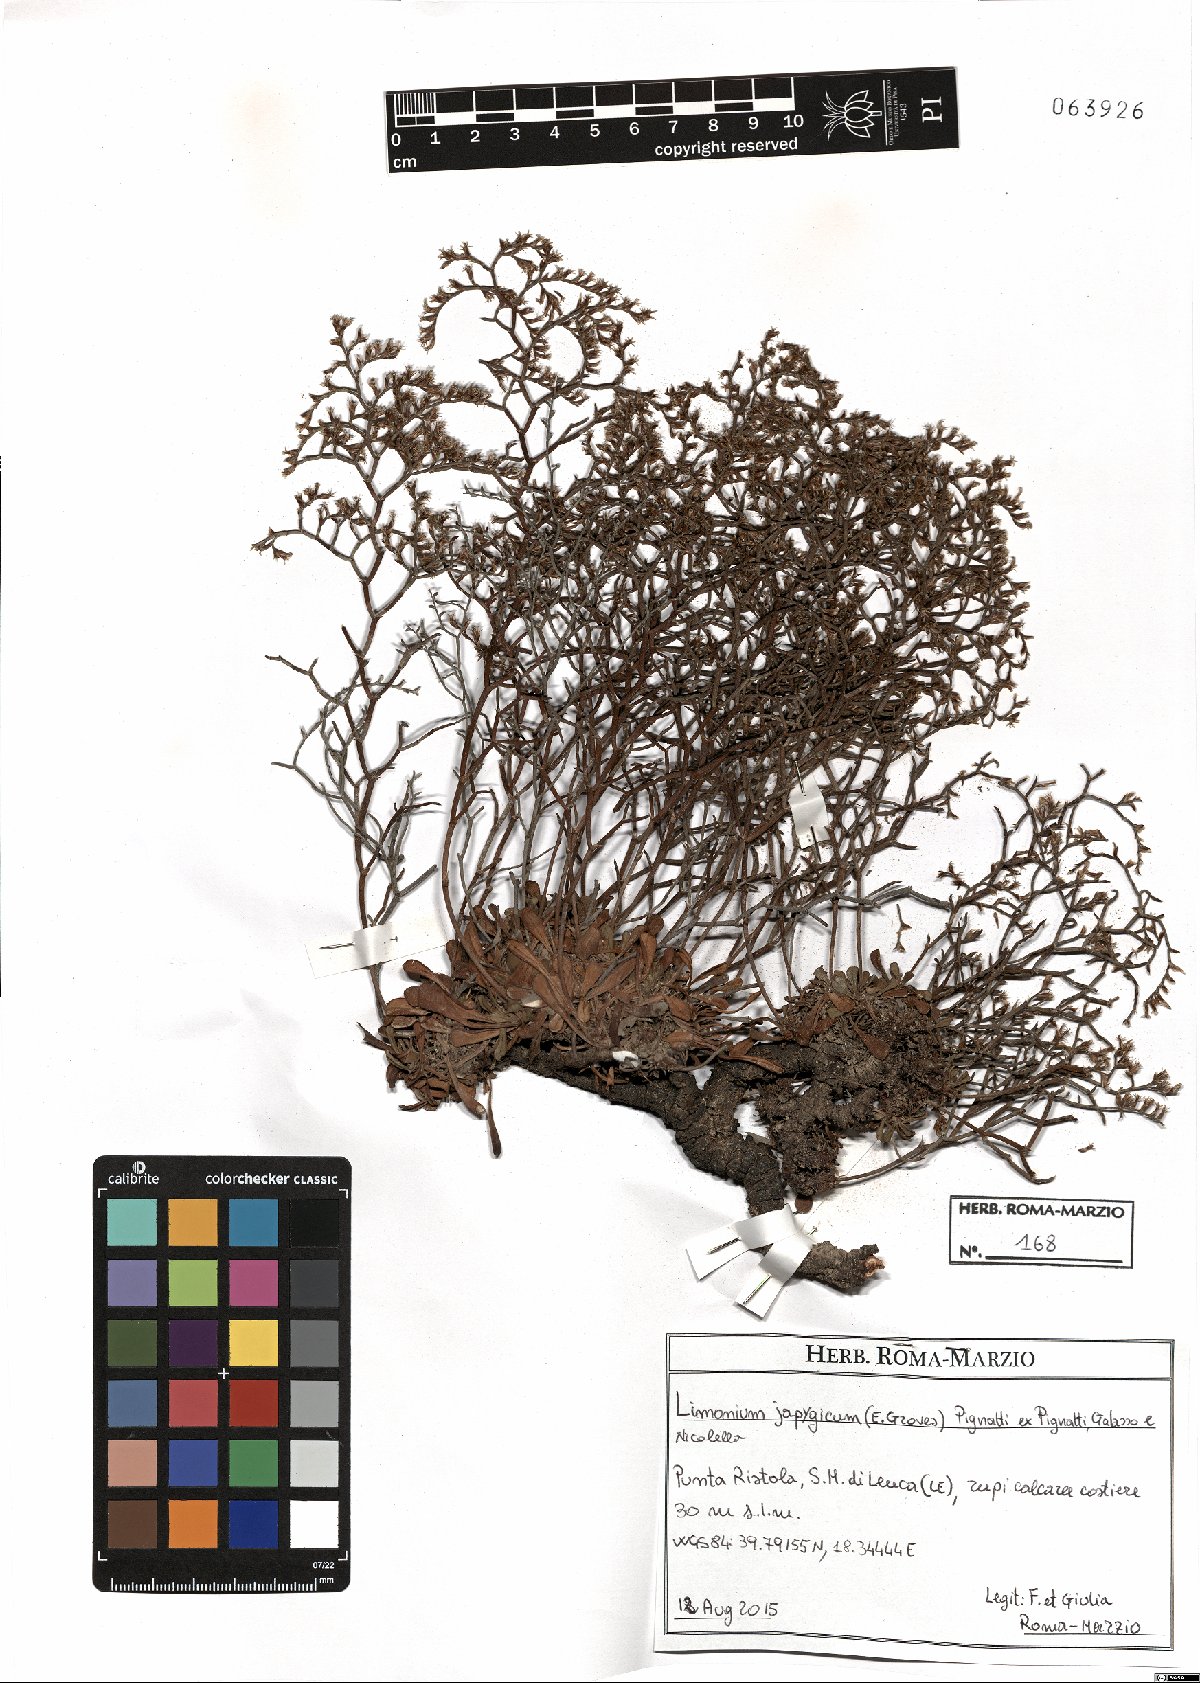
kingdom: Plantae
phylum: Tracheophyta
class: Magnoliopsida
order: Caryophyllales
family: Plumbaginaceae
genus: Limonium
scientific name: Limonium japygicum
